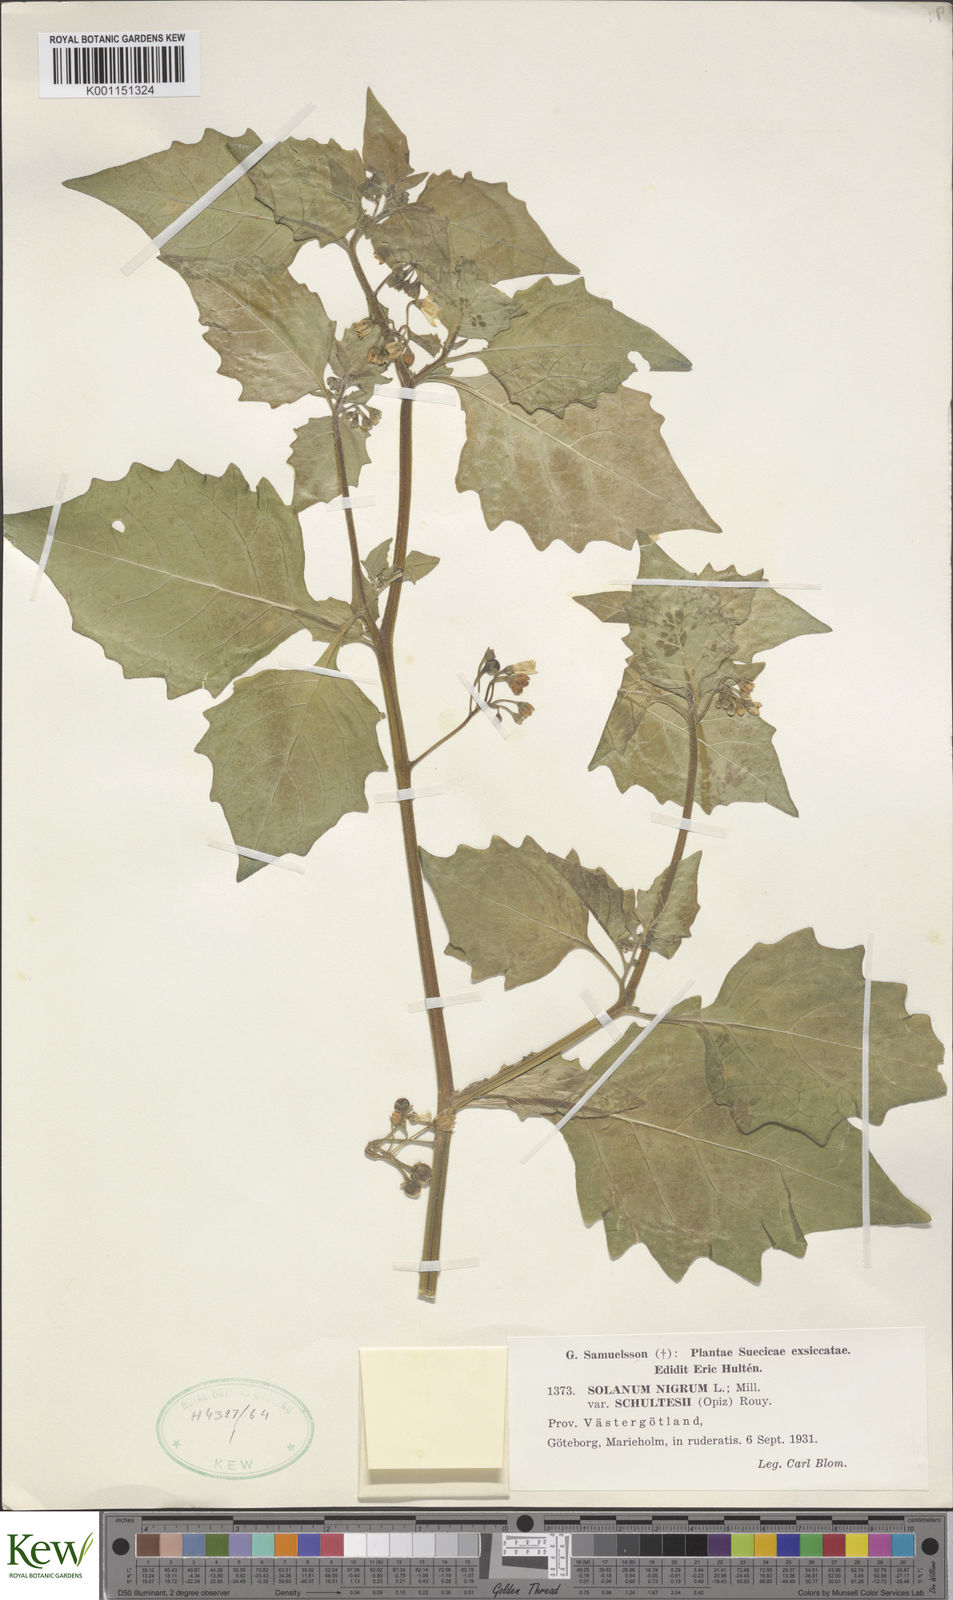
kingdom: Plantae
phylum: Tracheophyta
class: Magnoliopsida
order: Solanales
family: Solanaceae
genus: Solanum
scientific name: Solanum nigrum
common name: Black nightshade
